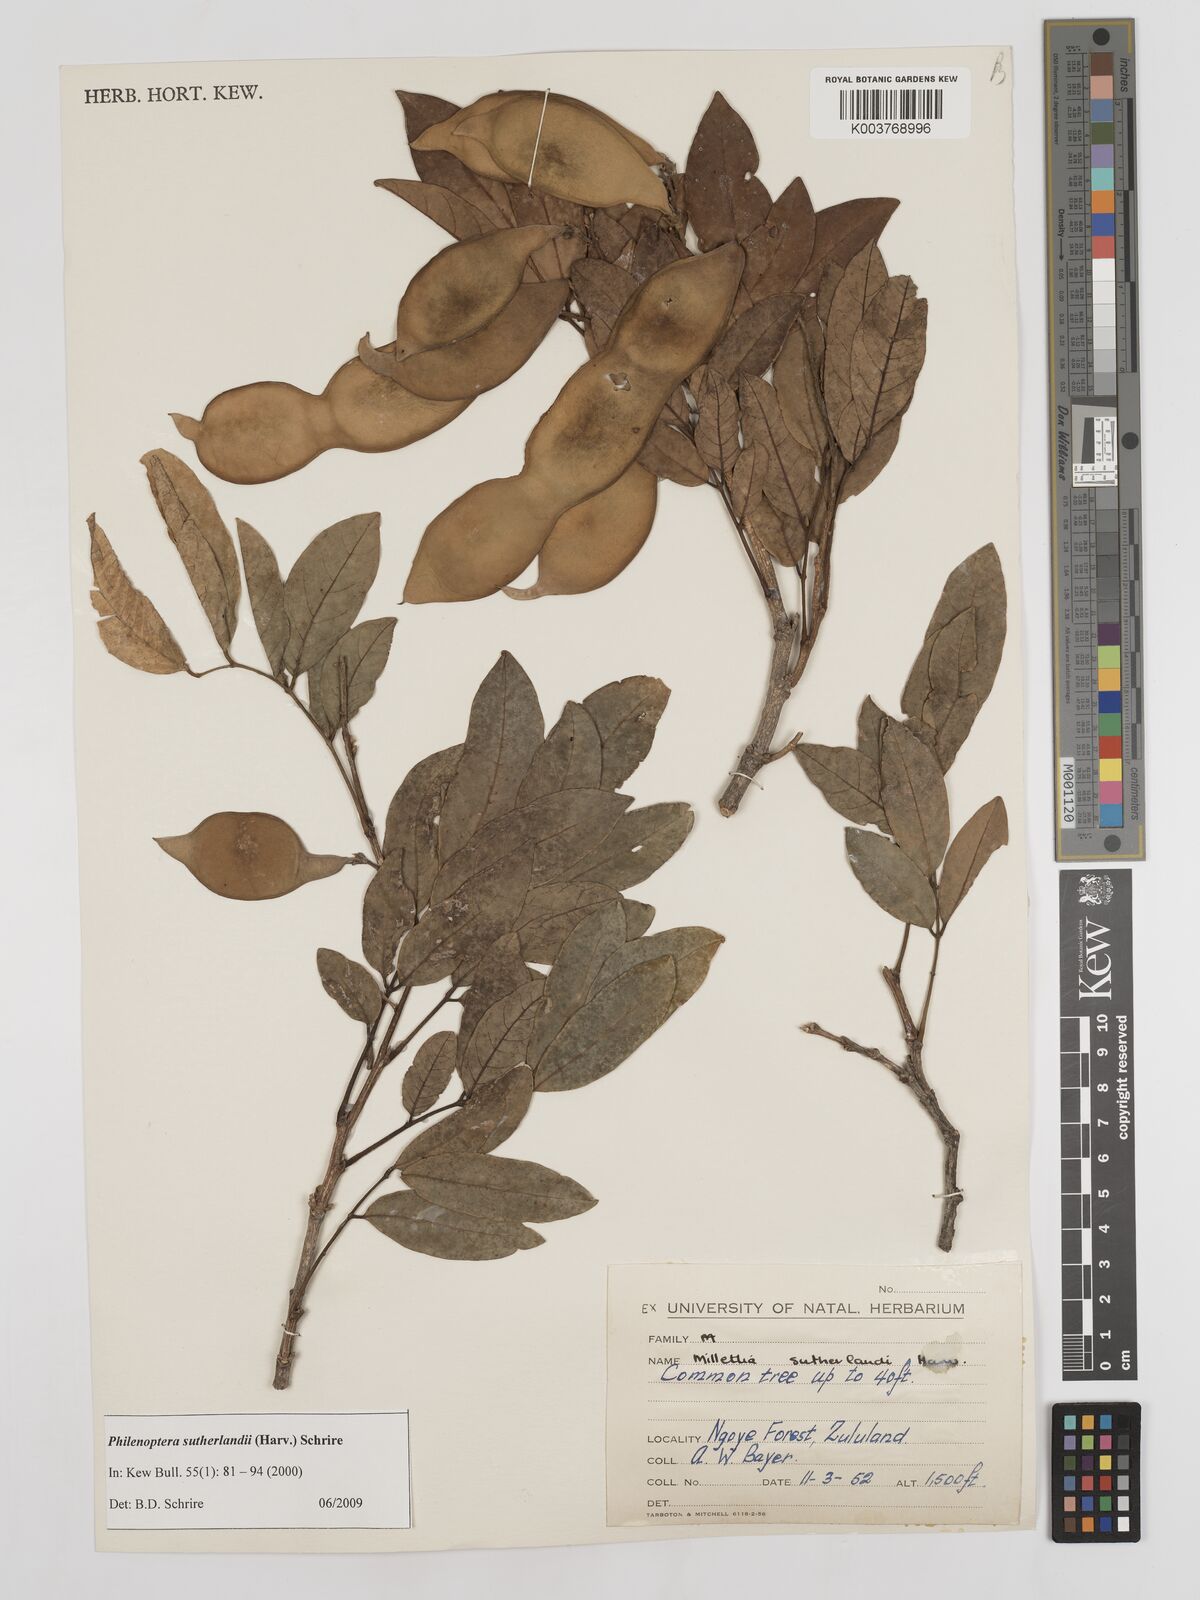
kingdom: Plantae
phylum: Tracheophyta
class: Magnoliopsida
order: Fabales
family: Fabaceae
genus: Philenoptera
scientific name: Philenoptera sutherlandii
